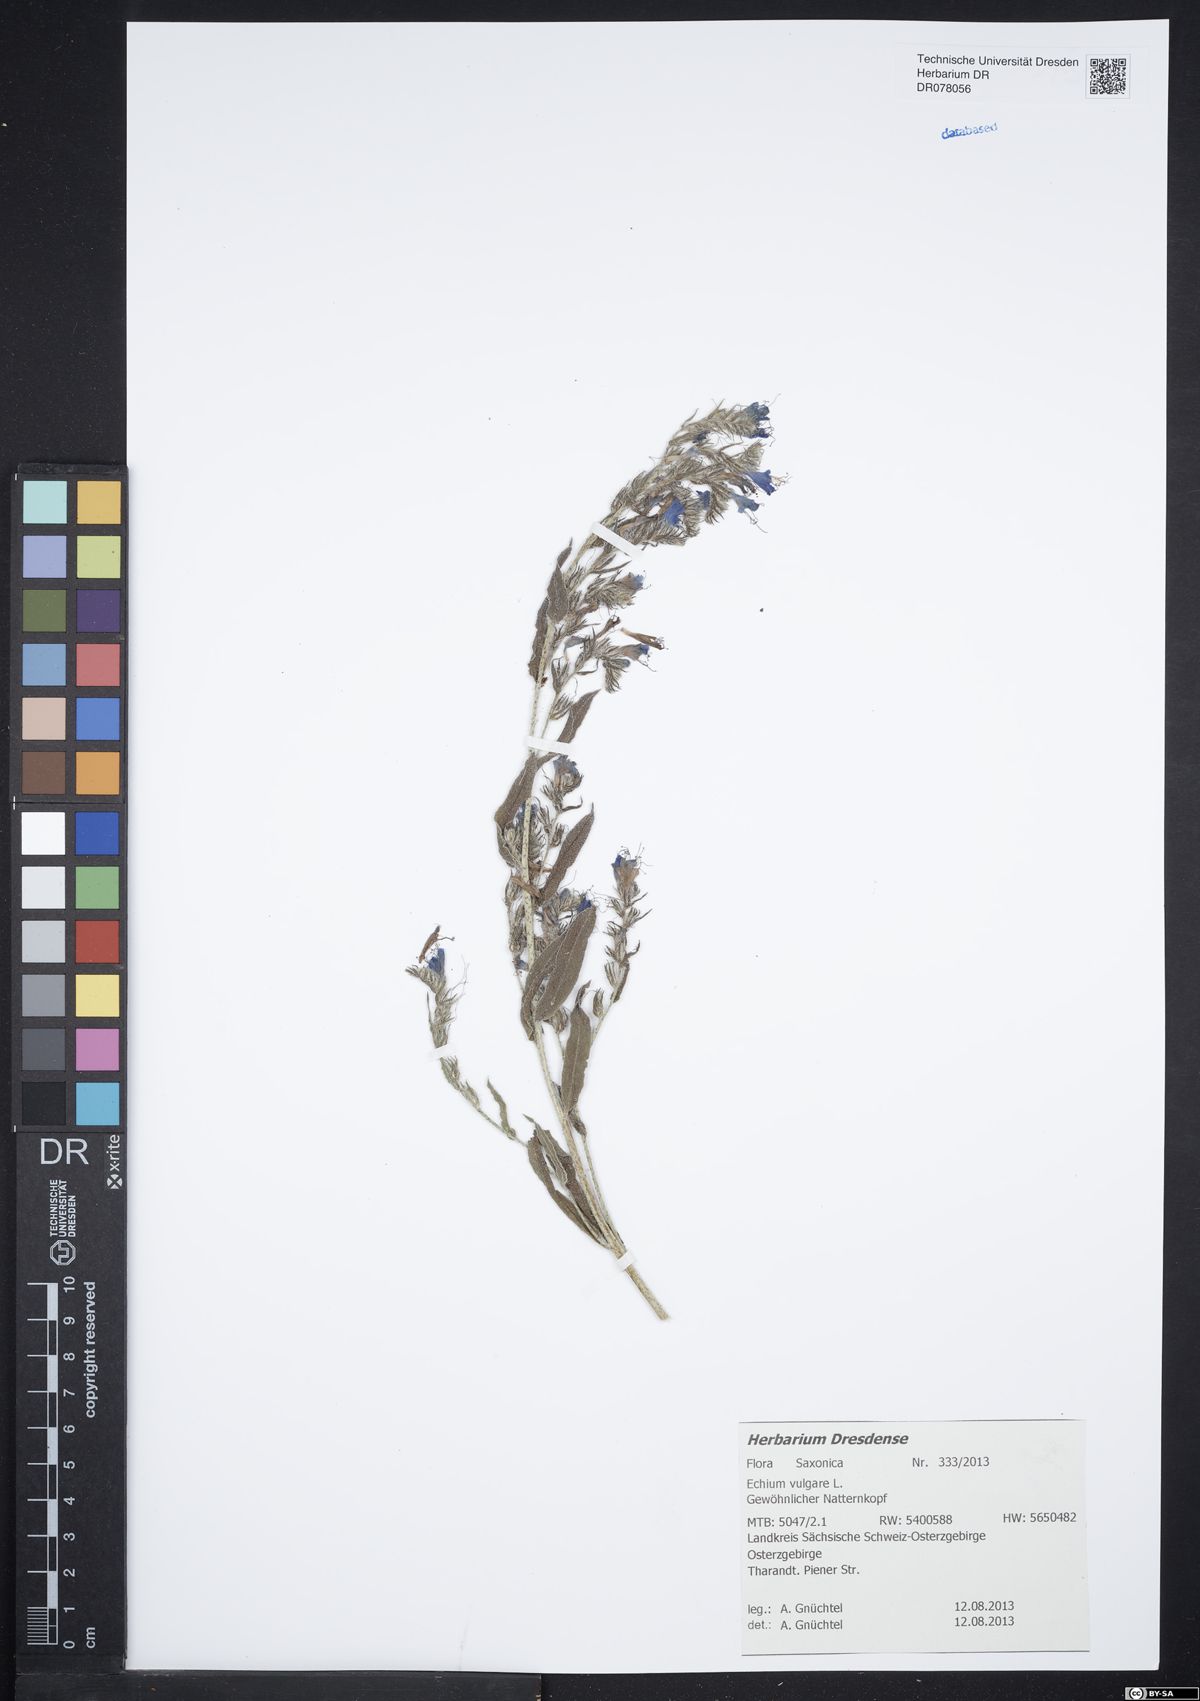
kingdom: Plantae
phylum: Tracheophyta
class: Magnoliopsida
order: Boraginales
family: Boraginaceae
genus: Echium
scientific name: Echium vulgare
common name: Common viper's bugloss
